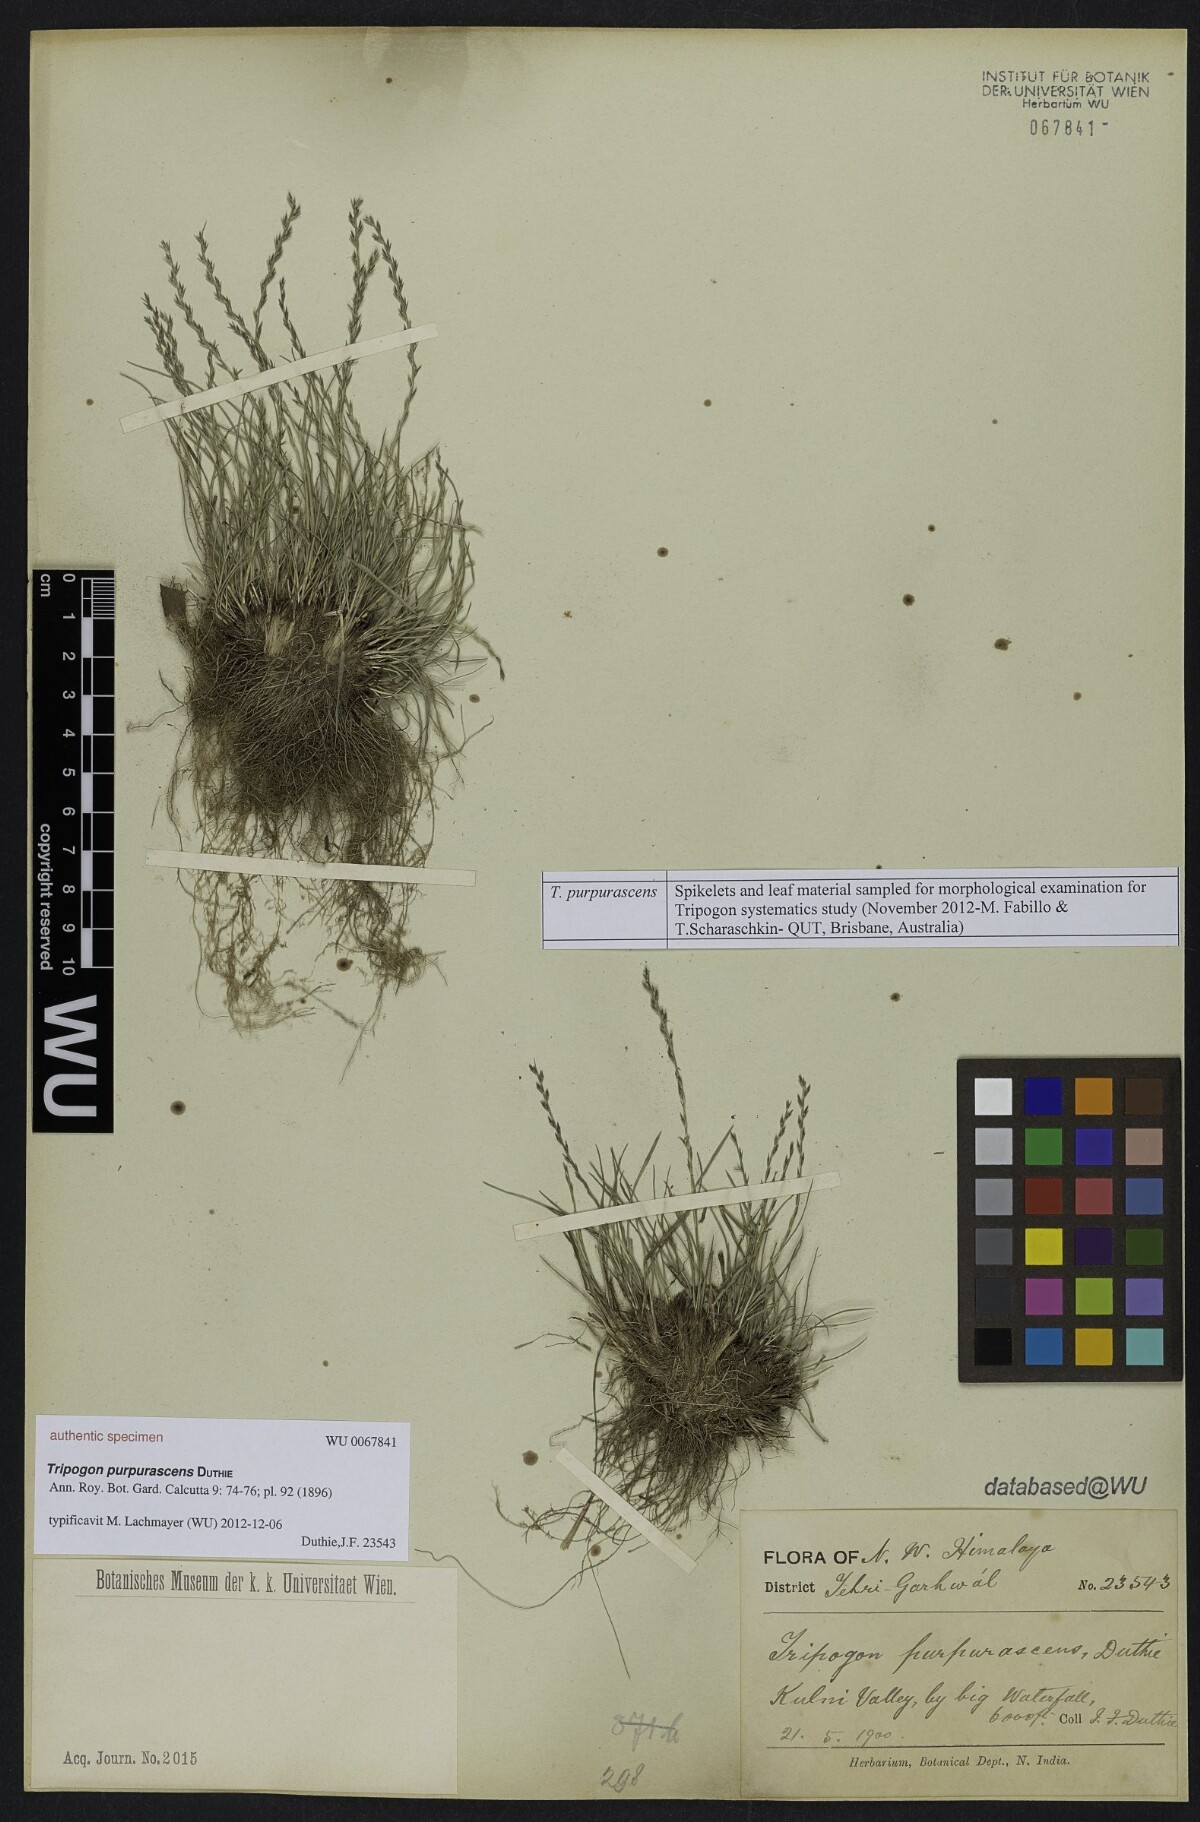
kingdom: Plantae
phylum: Tracheophyta
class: Liliopsida
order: Poales
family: Poaceae
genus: Tripogon
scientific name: Tripogon purpurascens
